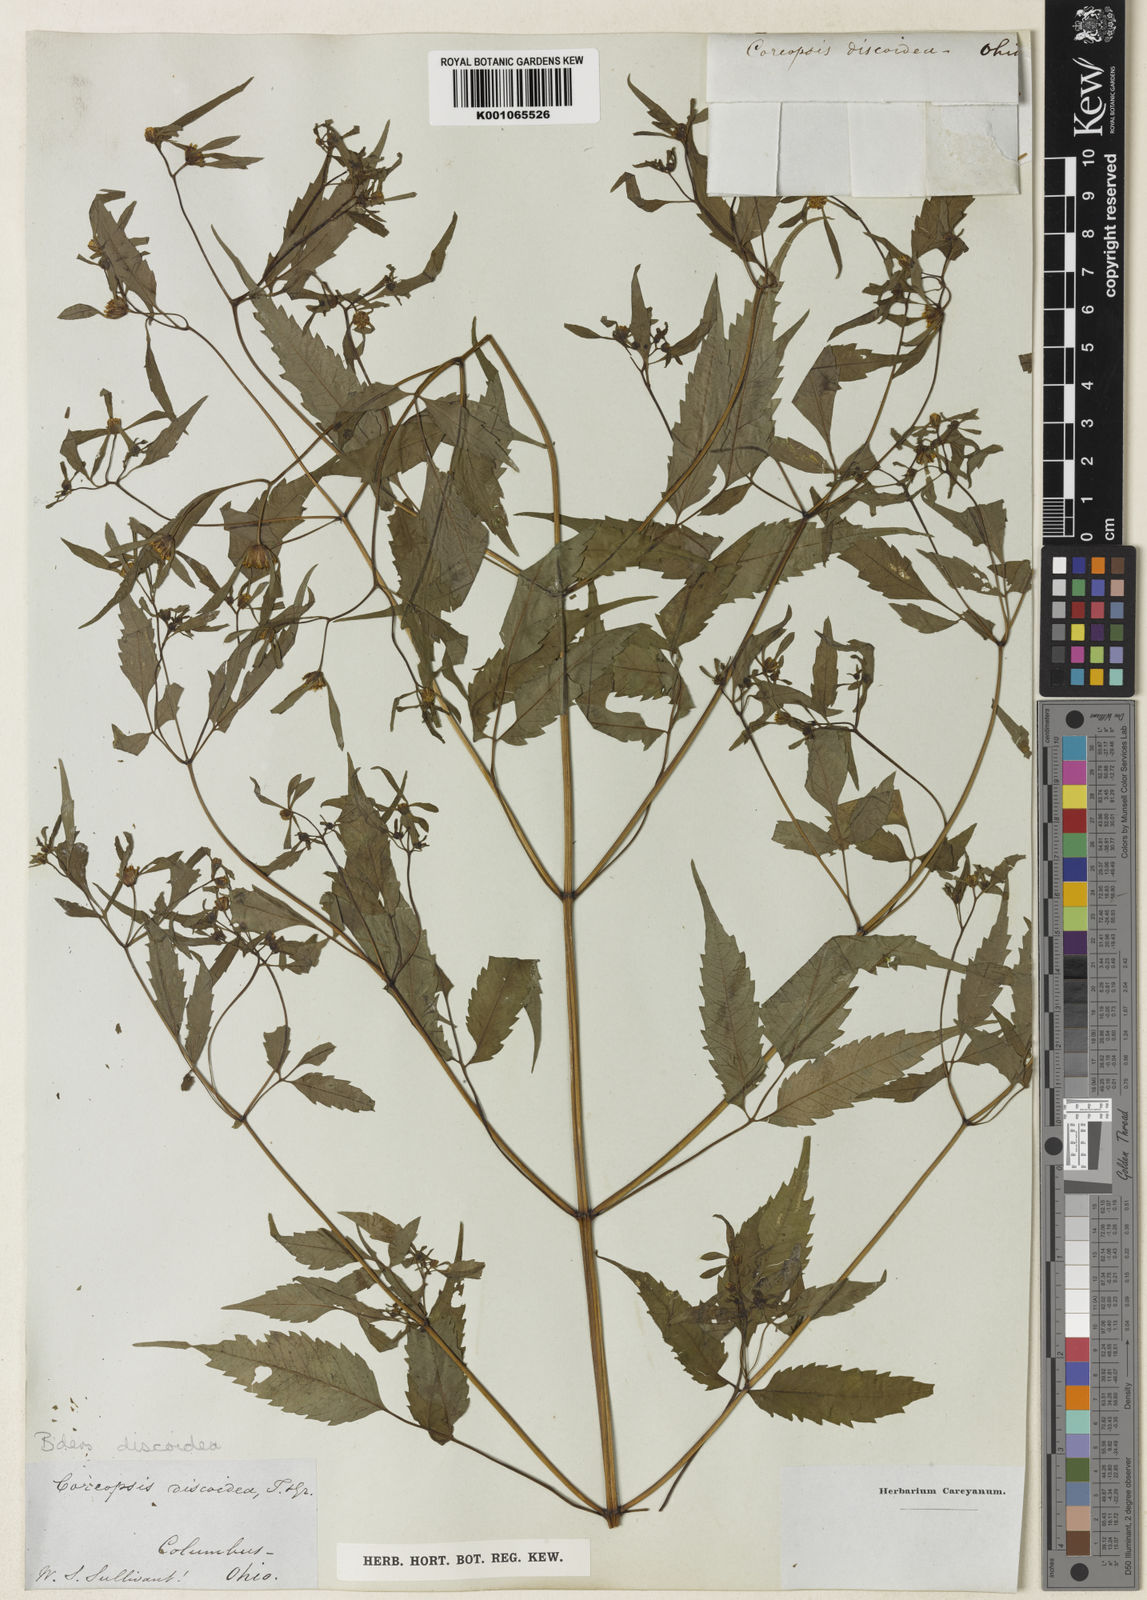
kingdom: Plantae
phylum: Tracheophyta
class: Magnoliopsida
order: Asterales
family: Asteraceae
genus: Bidens
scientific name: Bidens discoidea
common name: Discoide beggarticks
